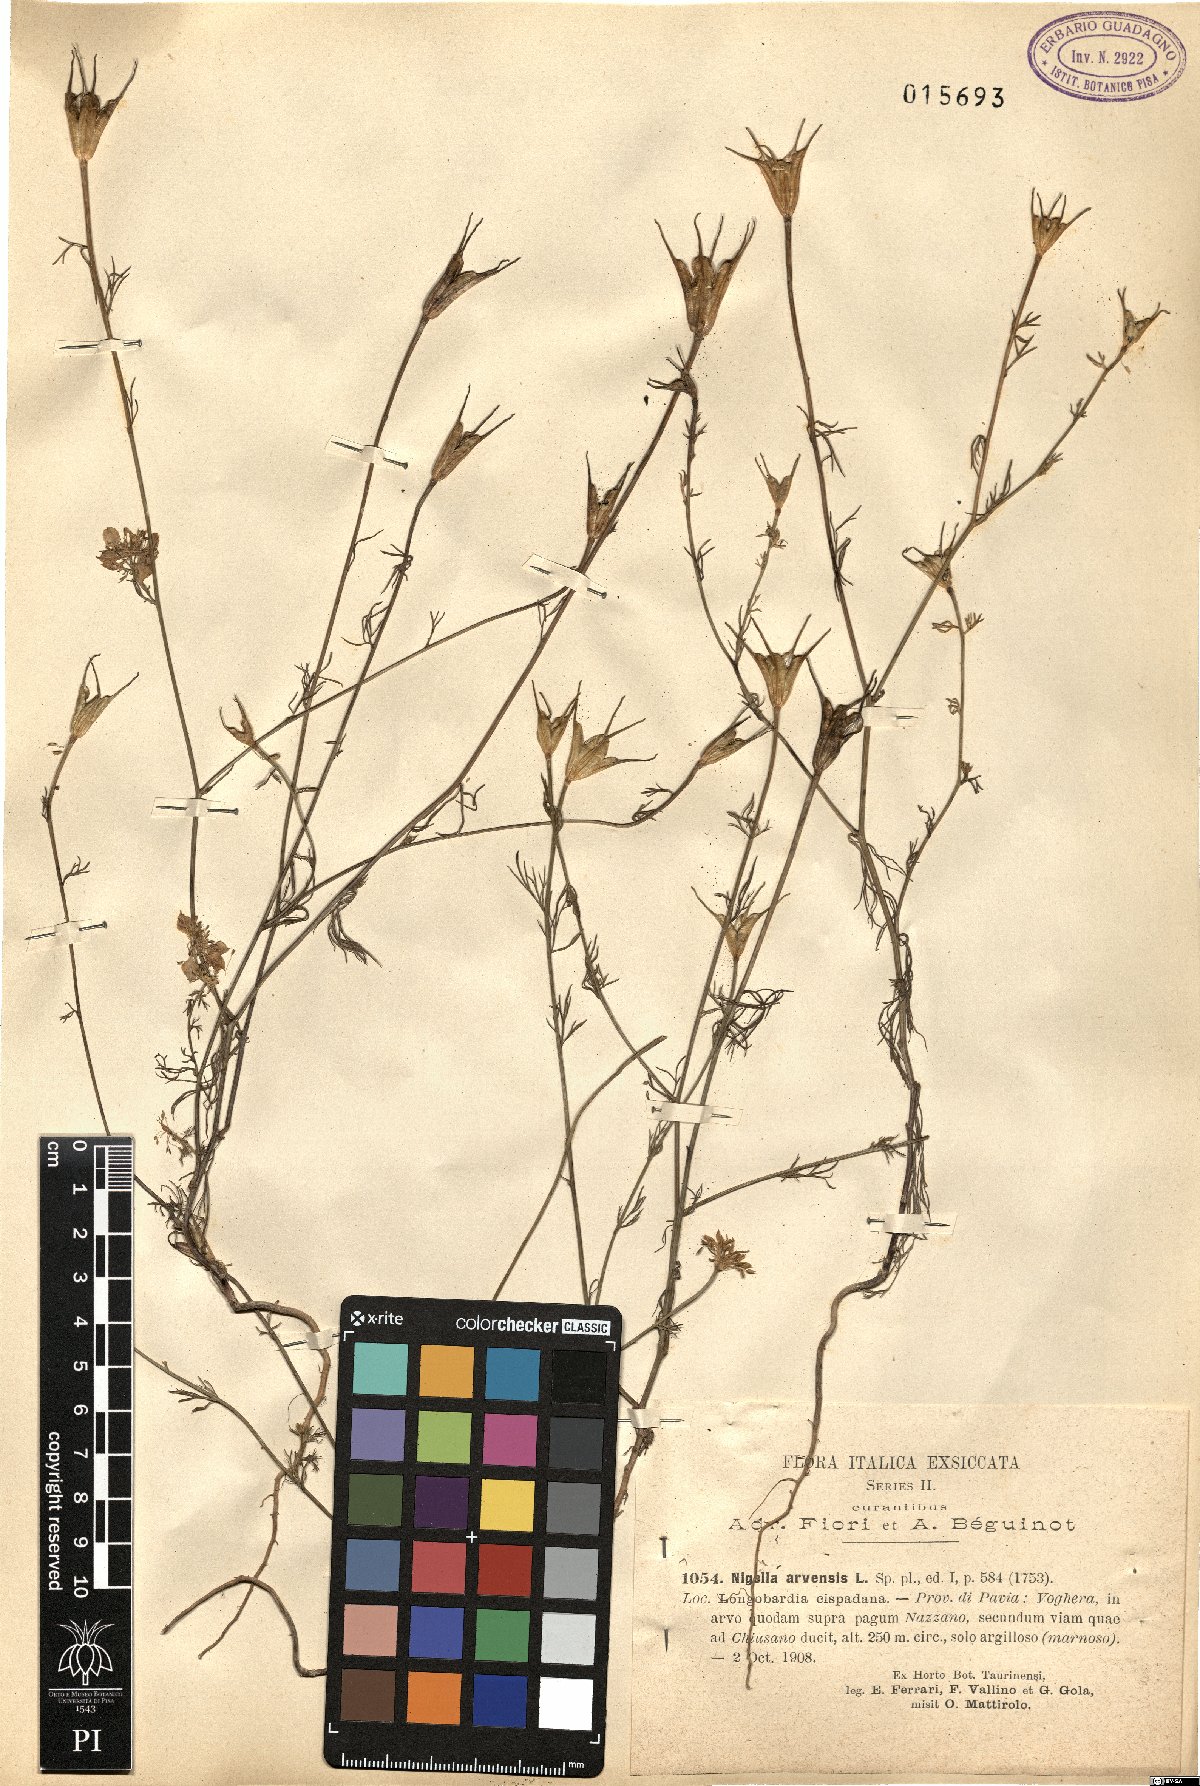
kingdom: Plantae
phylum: Tracheophyta
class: Magnoliopsida
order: Ranunculales
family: Ranunculaceae
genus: Nigella
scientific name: Nigella arvensis
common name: Wild fennel-flower
